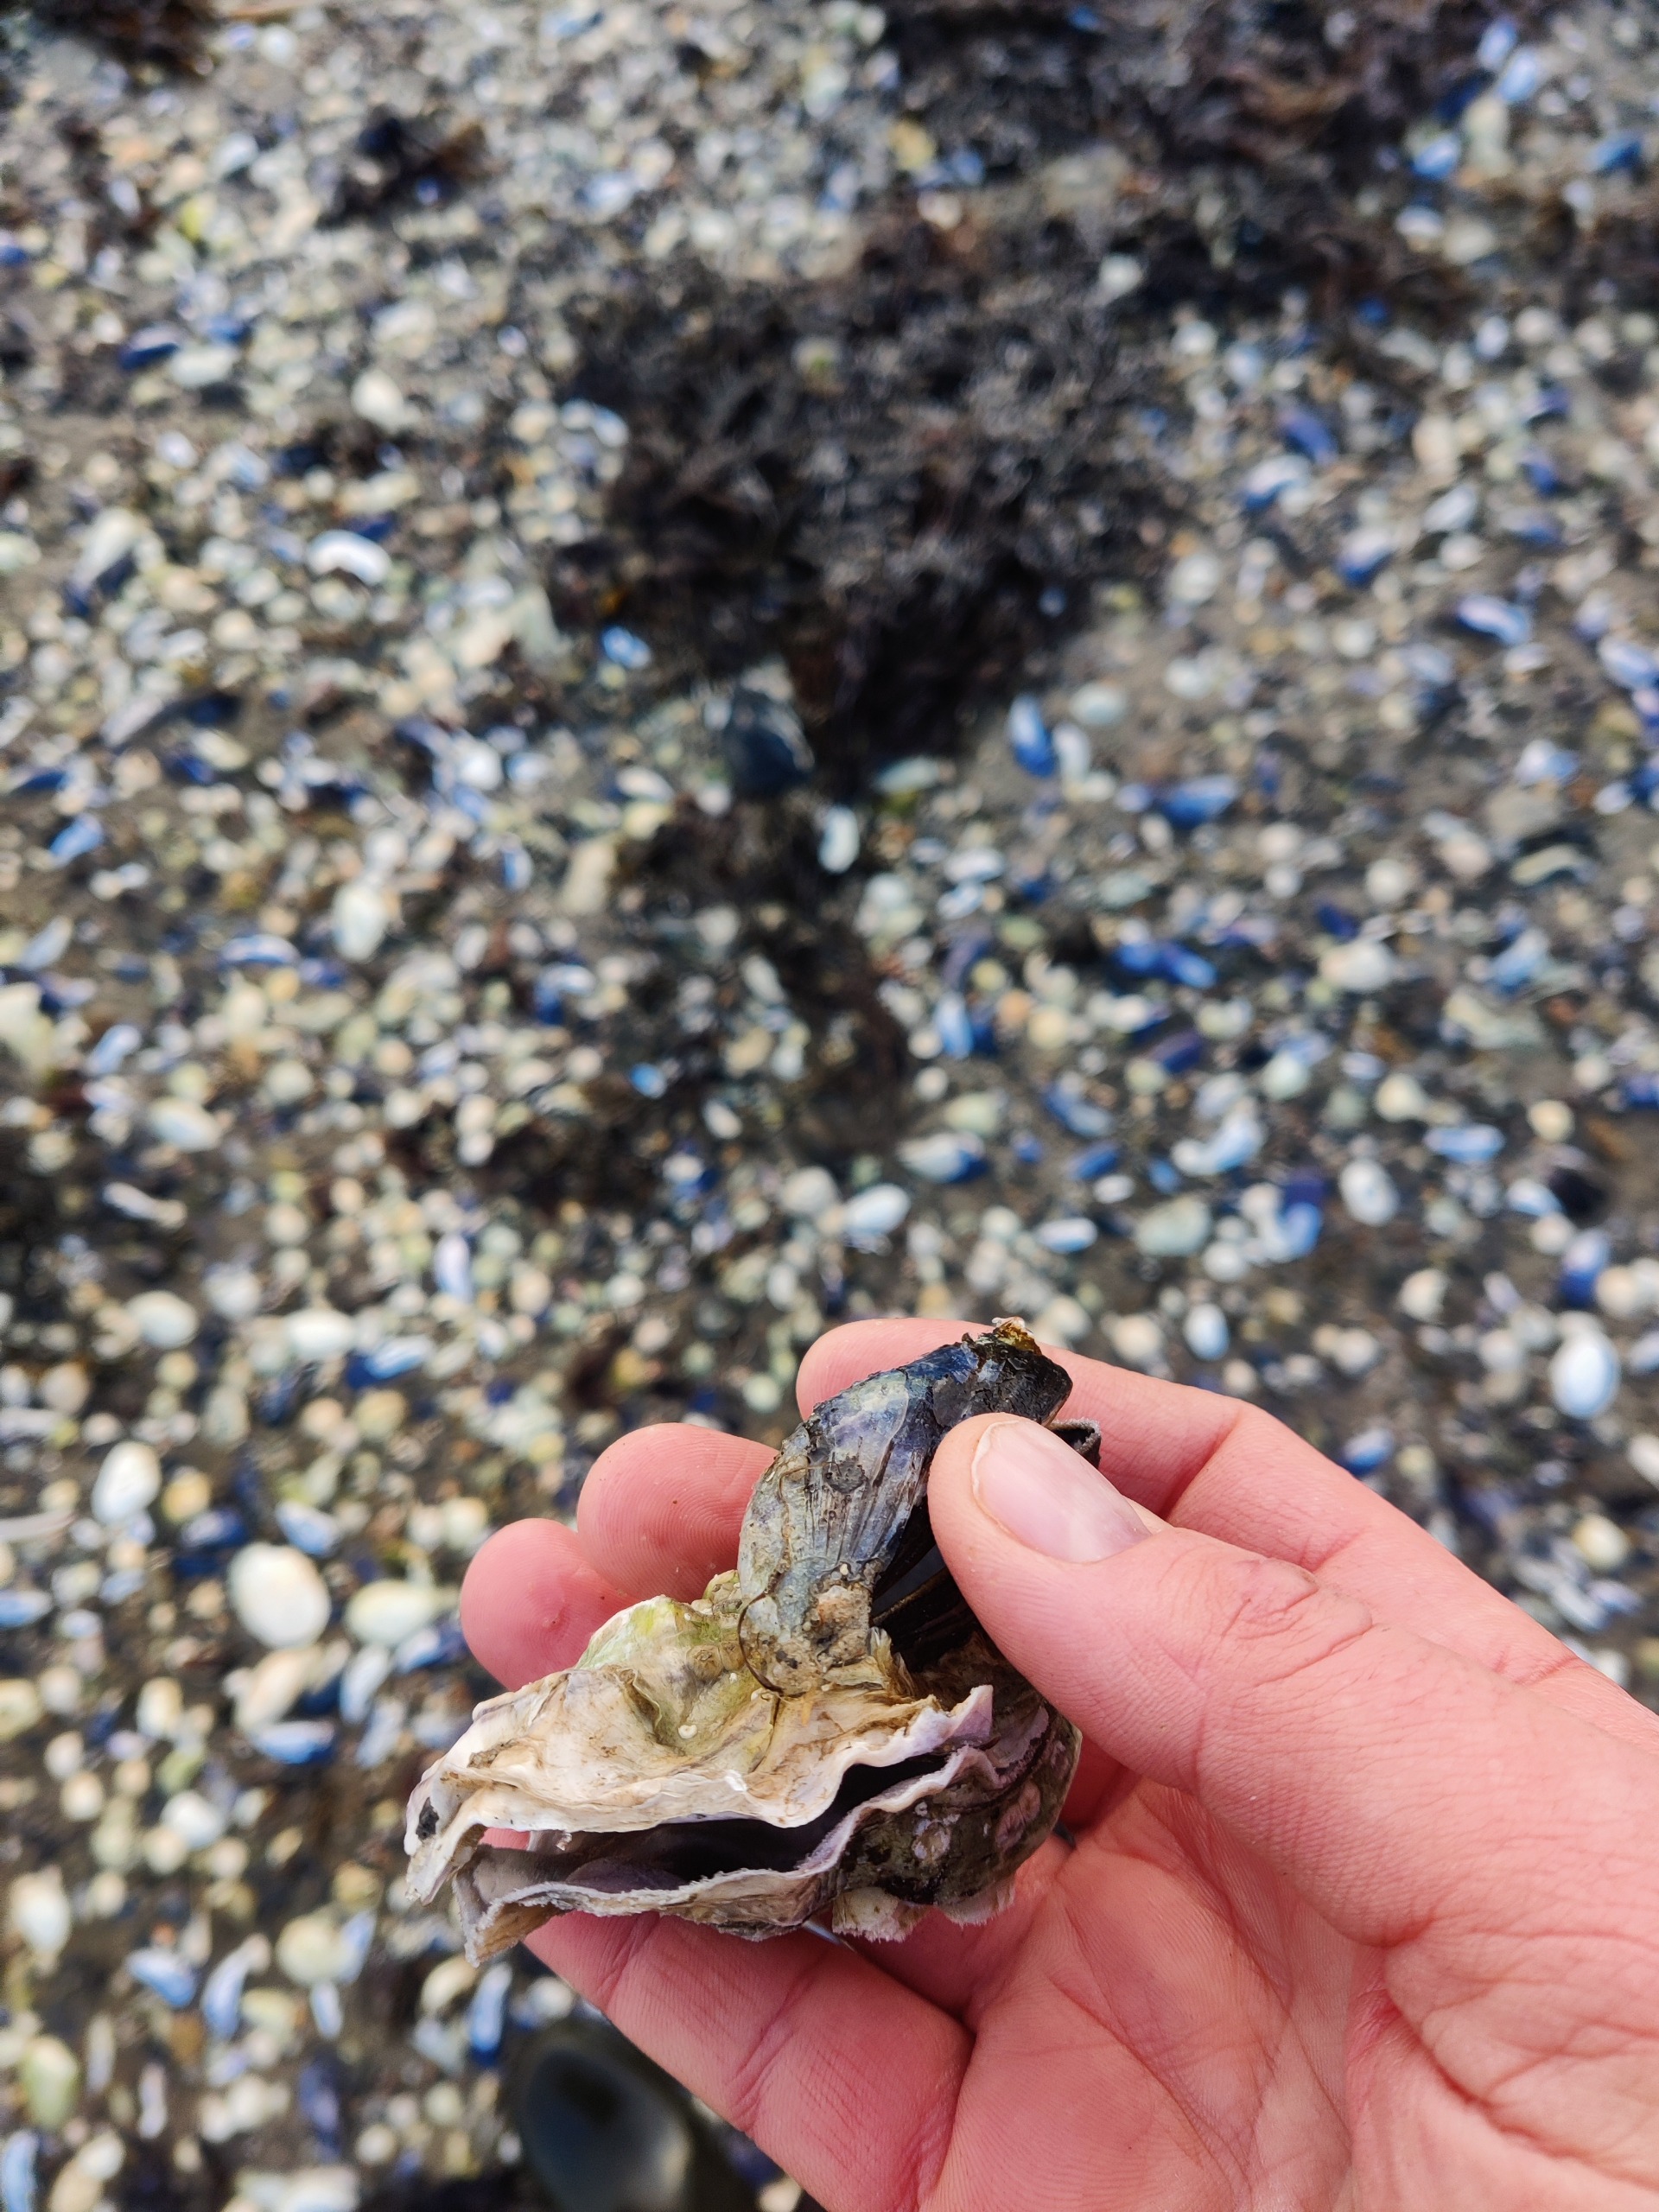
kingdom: Animalia
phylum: Mollusca
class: Bivalvia
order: Ostreida
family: Ostreidae
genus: Magallana
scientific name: Magallana gigas
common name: Stillehavsøsters
